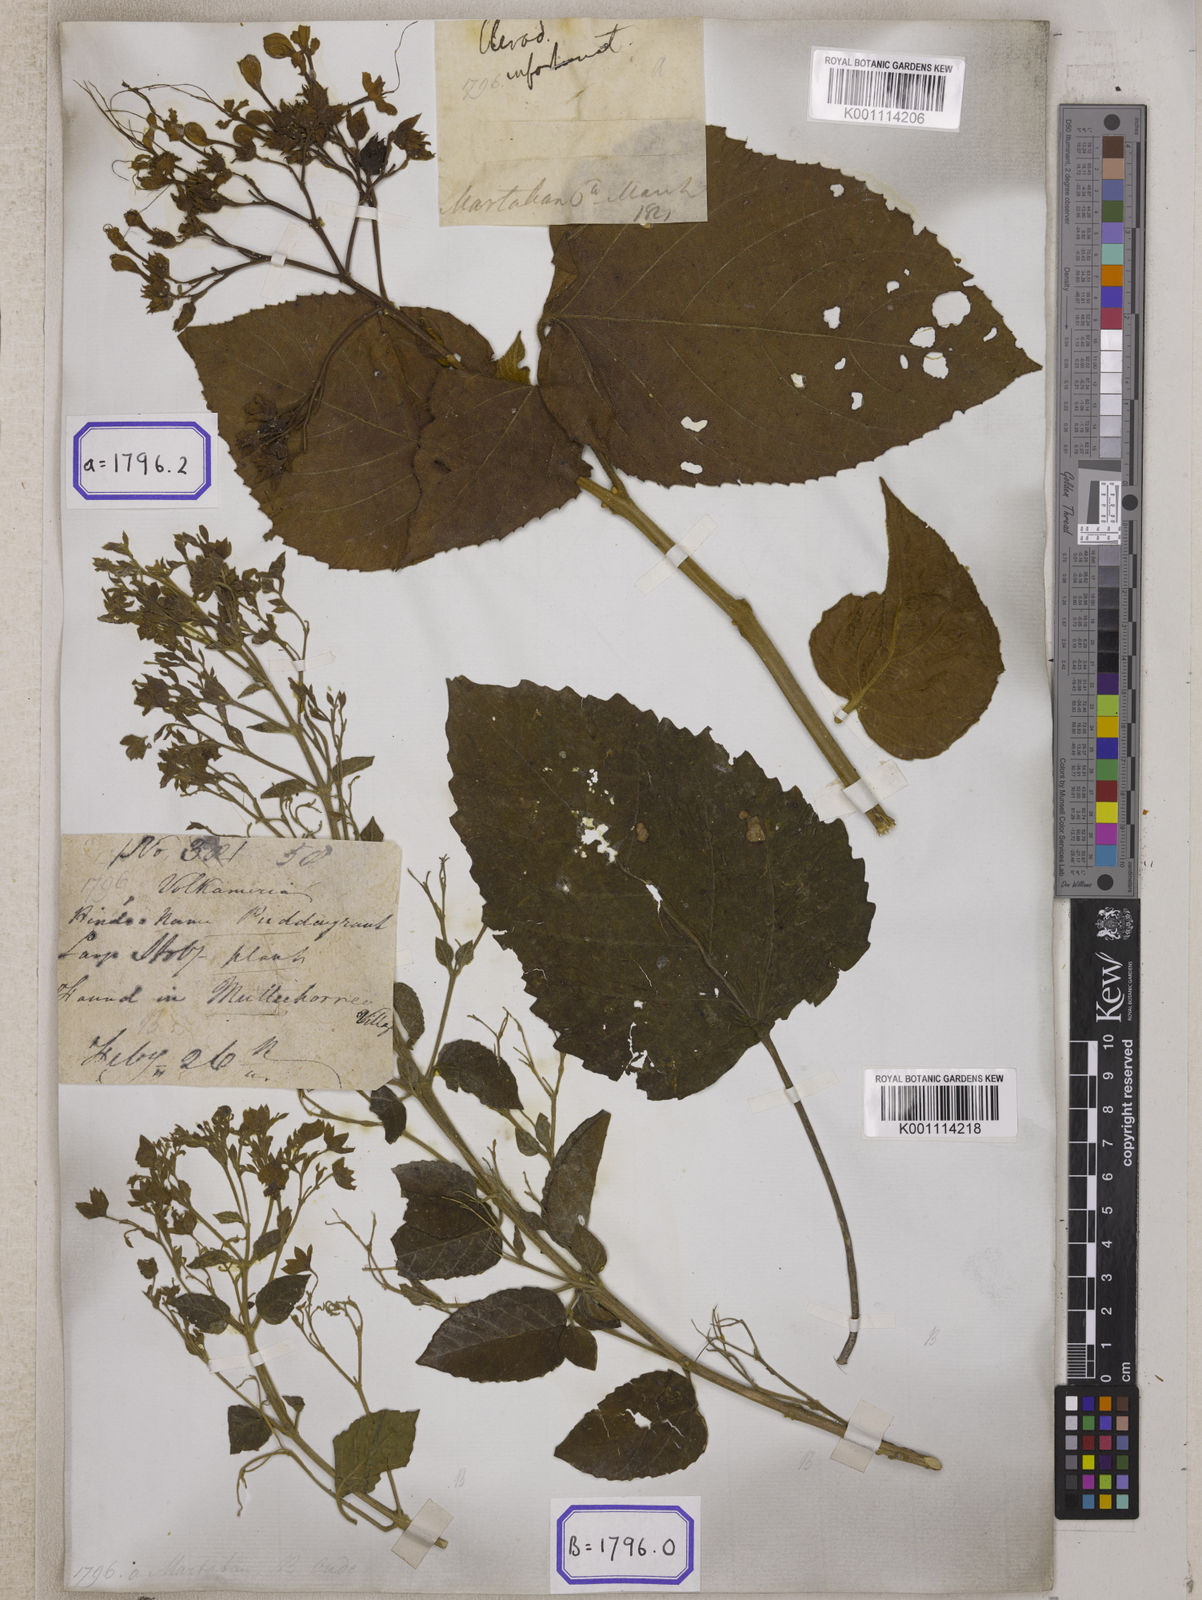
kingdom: Plantae
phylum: Tracheophyta
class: Magnoliopsida
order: Lamiales
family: Lamiaceae
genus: Clerodendrum
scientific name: Clerodendrum infortunatum
